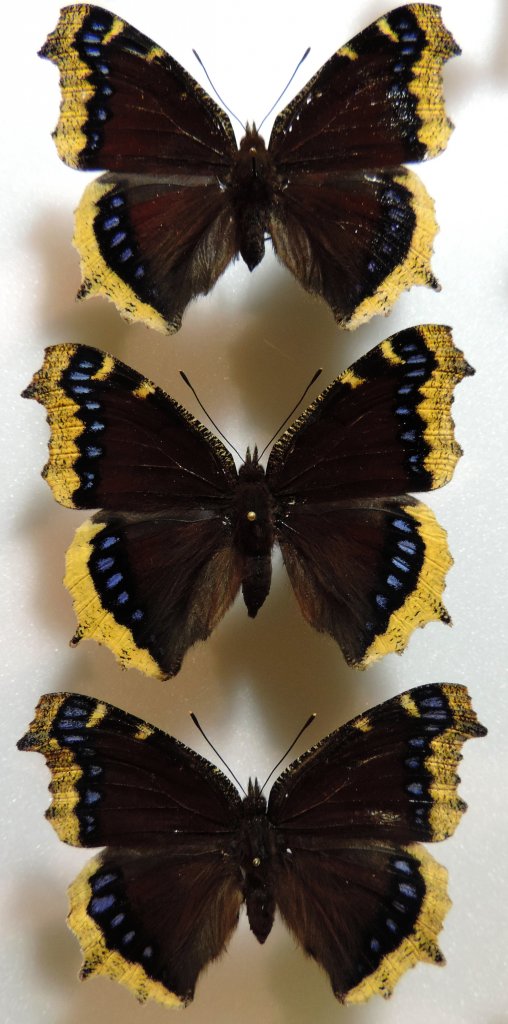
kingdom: Animalia
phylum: Arthropoda
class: Insecta
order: Lepidoptera
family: Nymphalidae
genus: Nymphalis
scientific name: Nymphalis antiopa
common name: Mourning Cloak
